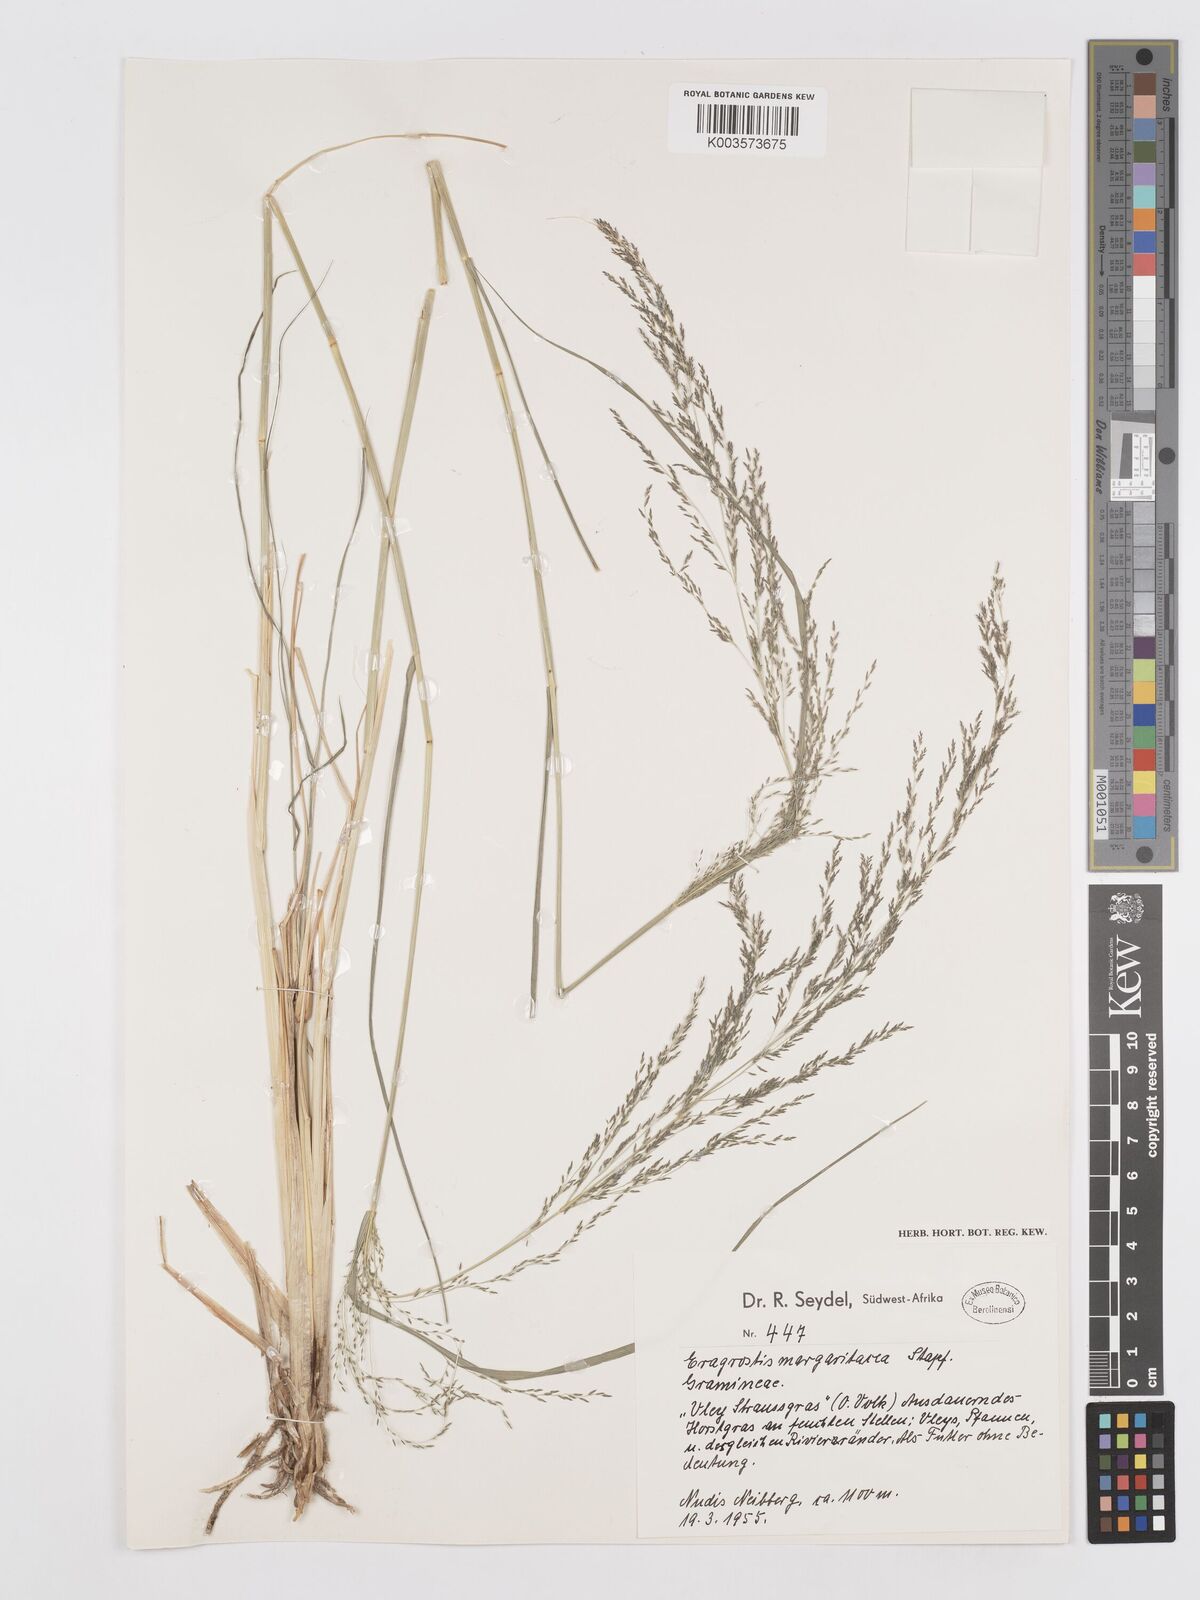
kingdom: Plantae
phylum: Tracheophyta
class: Liliopsida
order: Poales
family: Poaceae
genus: Eragrostis
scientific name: Eragrostis rotifer
